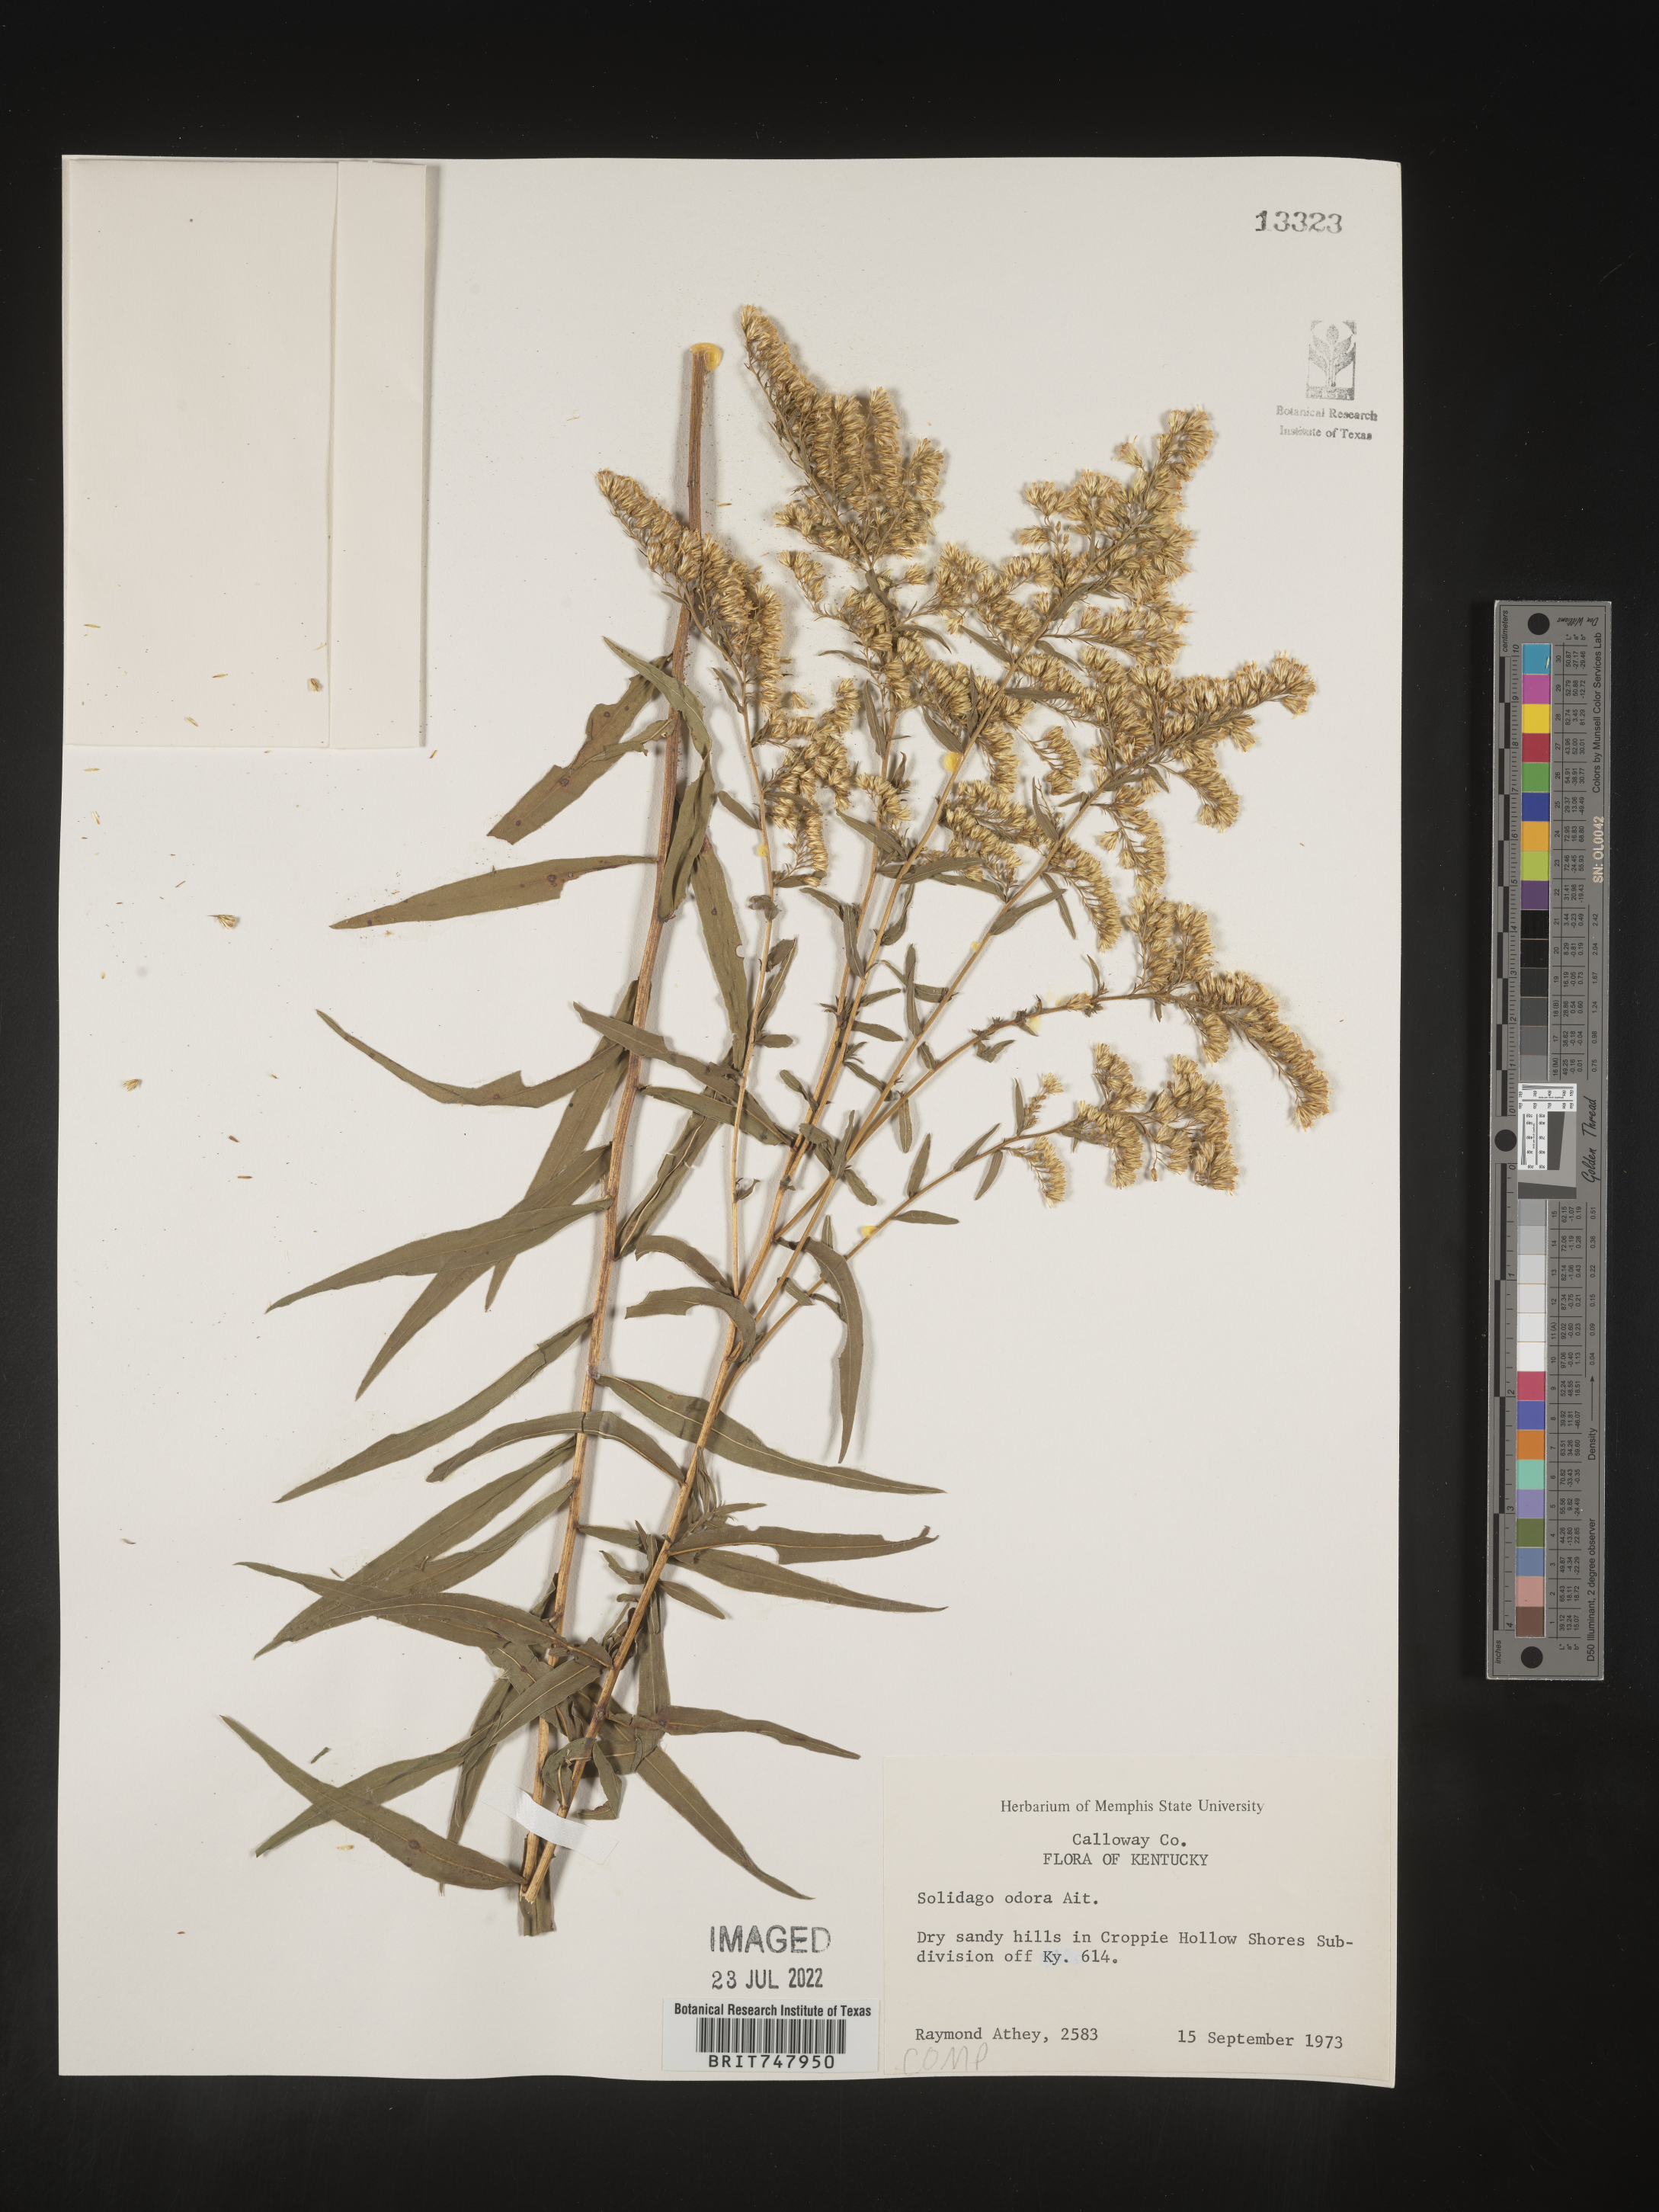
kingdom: Plantae
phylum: Tracheophyta
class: Magnoliopsida
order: Asterales
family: Asteraceae
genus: Solidago
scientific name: Solidago odora
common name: Anise-scented goldenrod
